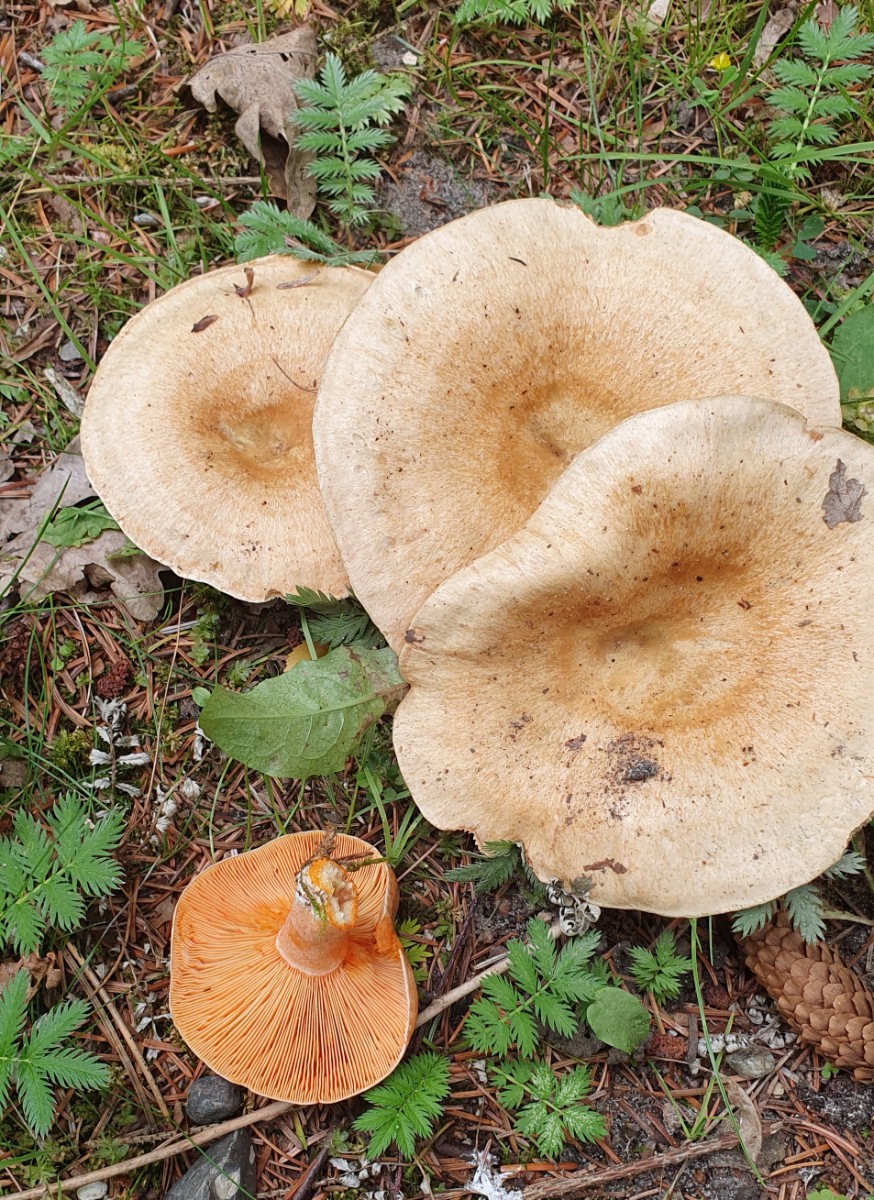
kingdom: Fungi
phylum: Basidiomycota
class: Agaricomycetes
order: Russulales
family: Russulaceae
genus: Lactarius
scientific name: Lactarius deterrimus
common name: gran-mælkehat
